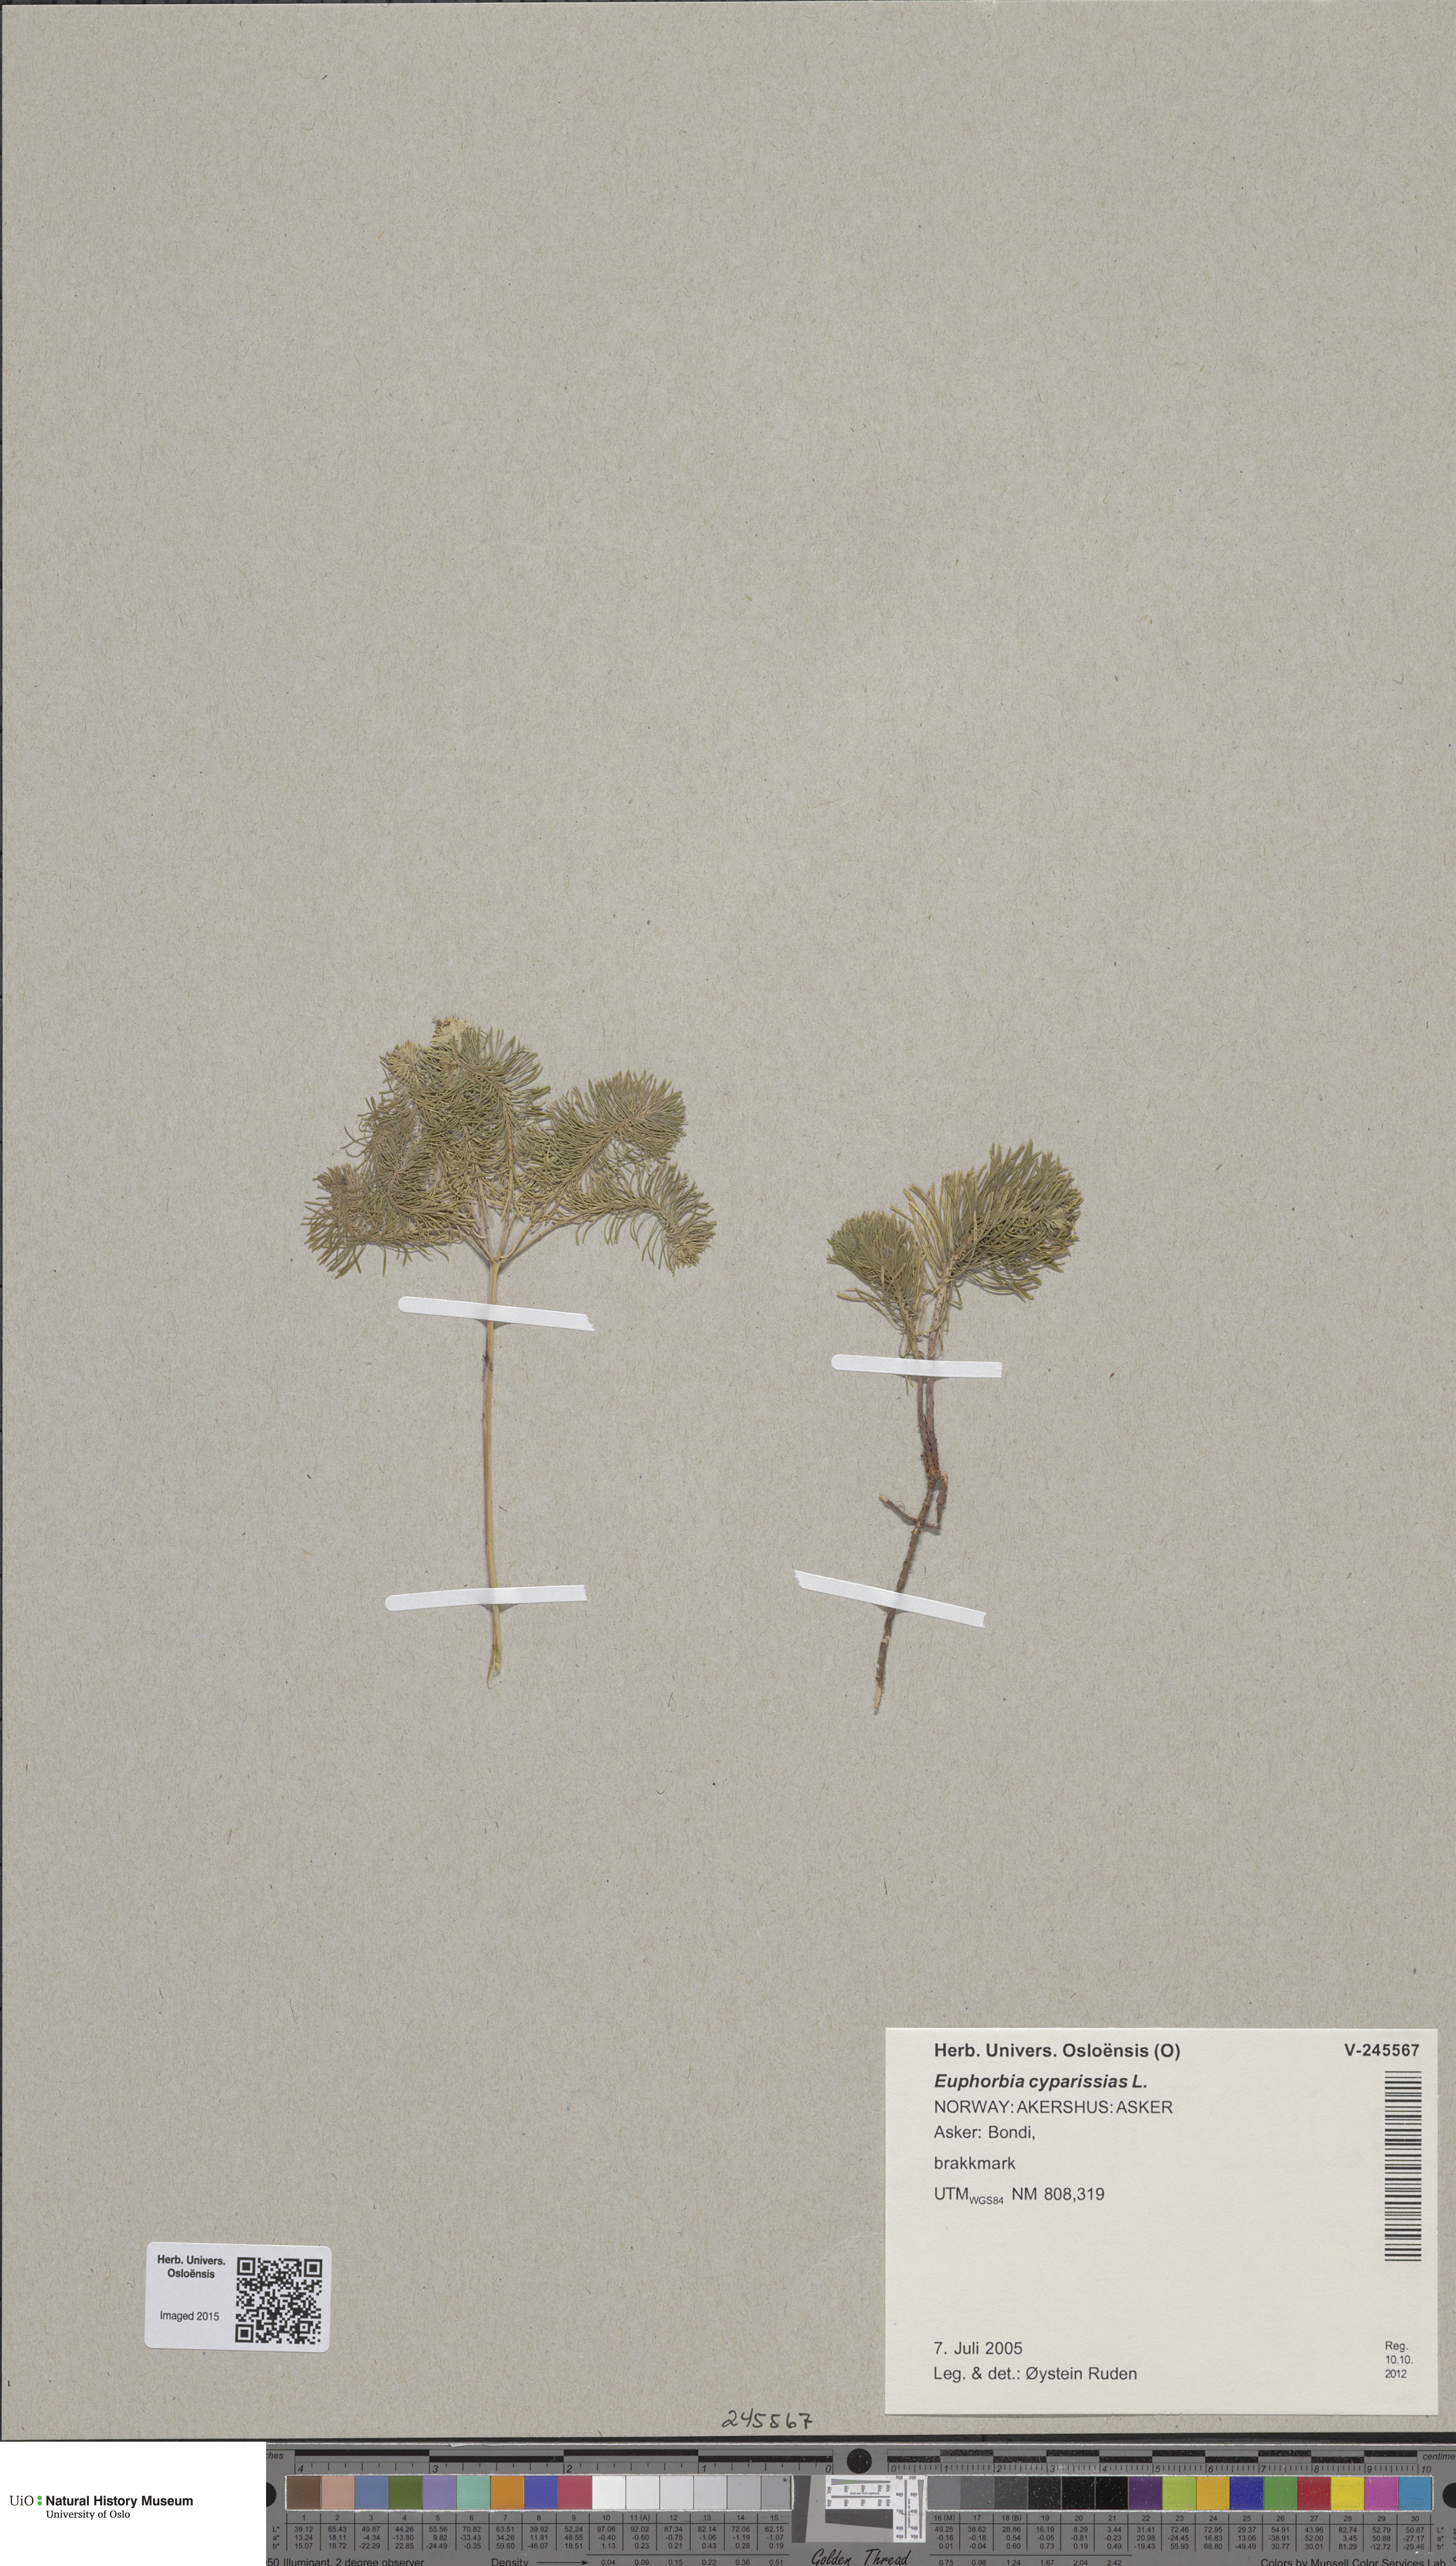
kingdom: Plantae
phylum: Tracheophyta
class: Magnoliopsida
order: Malpighiales
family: Euphorbiaceae
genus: Euphorbia
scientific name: Euphorbia cyparissias
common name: Cypress spurge
